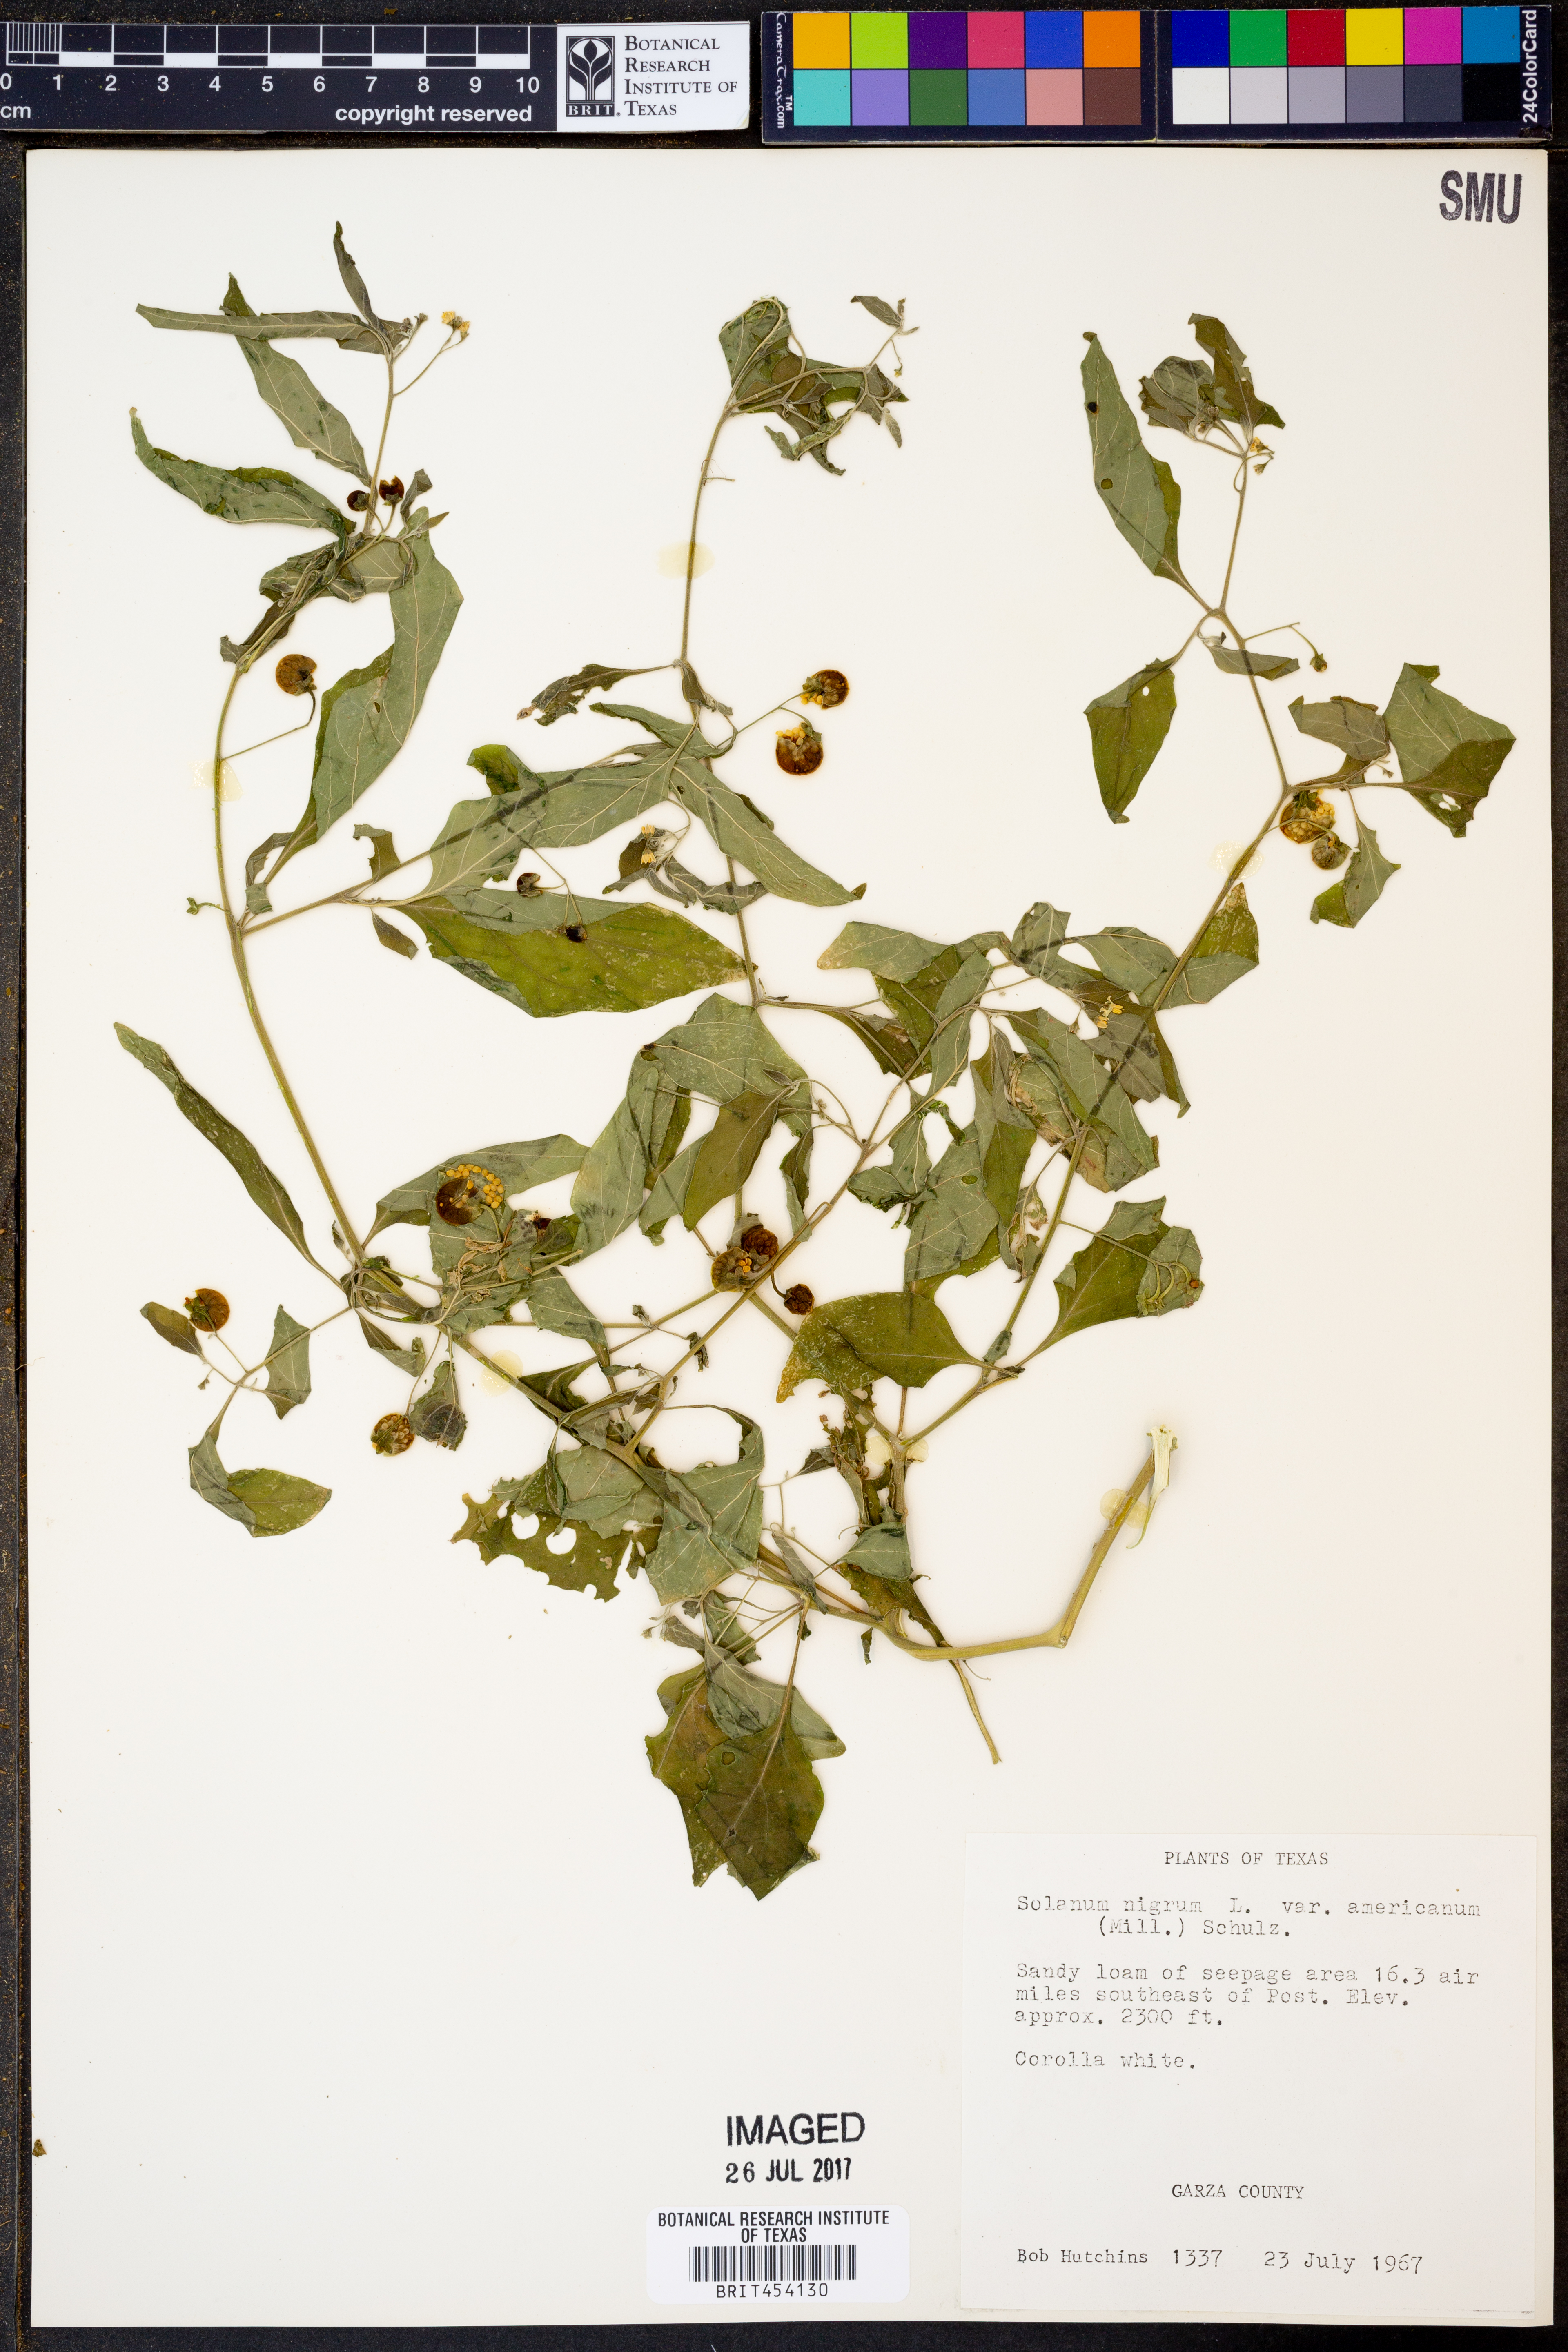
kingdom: Plantae
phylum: Tracheophyta
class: Magnoliopsida
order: Solanales
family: Solanaceae
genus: Solanum
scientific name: Solanum americanum
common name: American black nightshade
